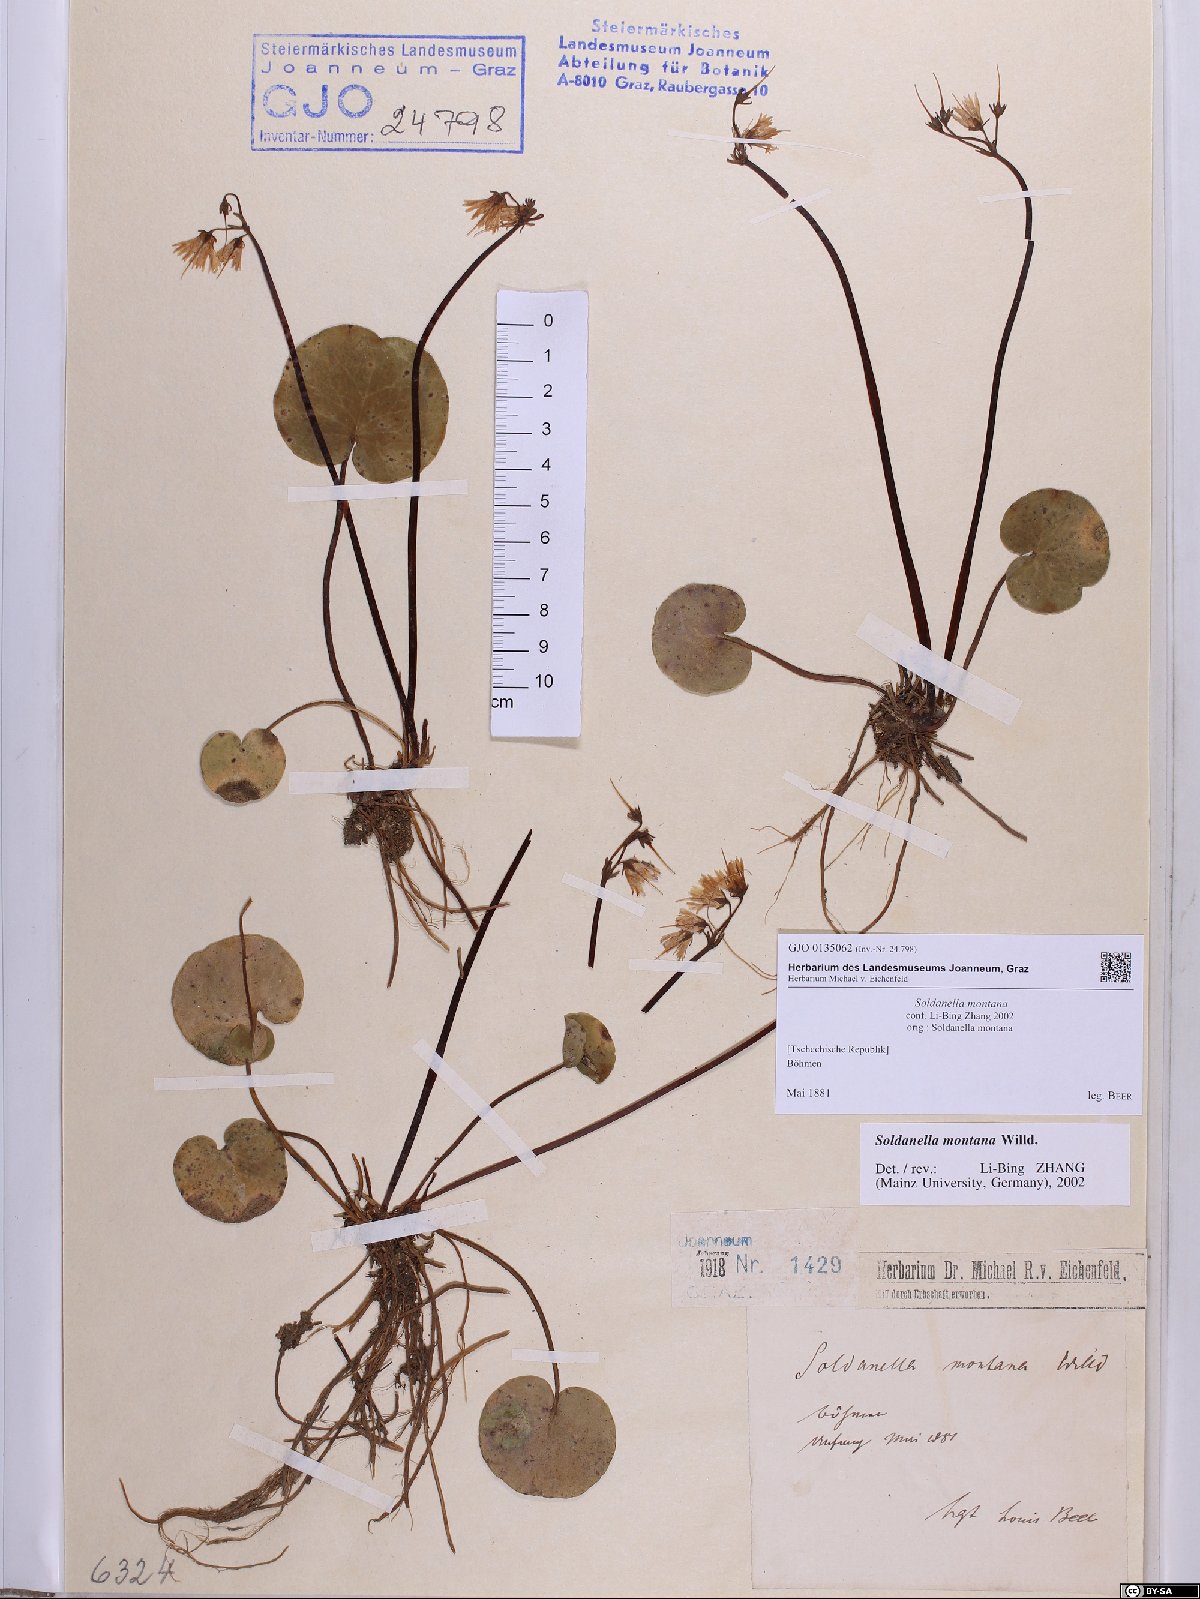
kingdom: Plantae
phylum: Tracheophyta
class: Magnoliopsida
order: Ericales
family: Primulaceae
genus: Soldanella
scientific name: Soldanella montana
